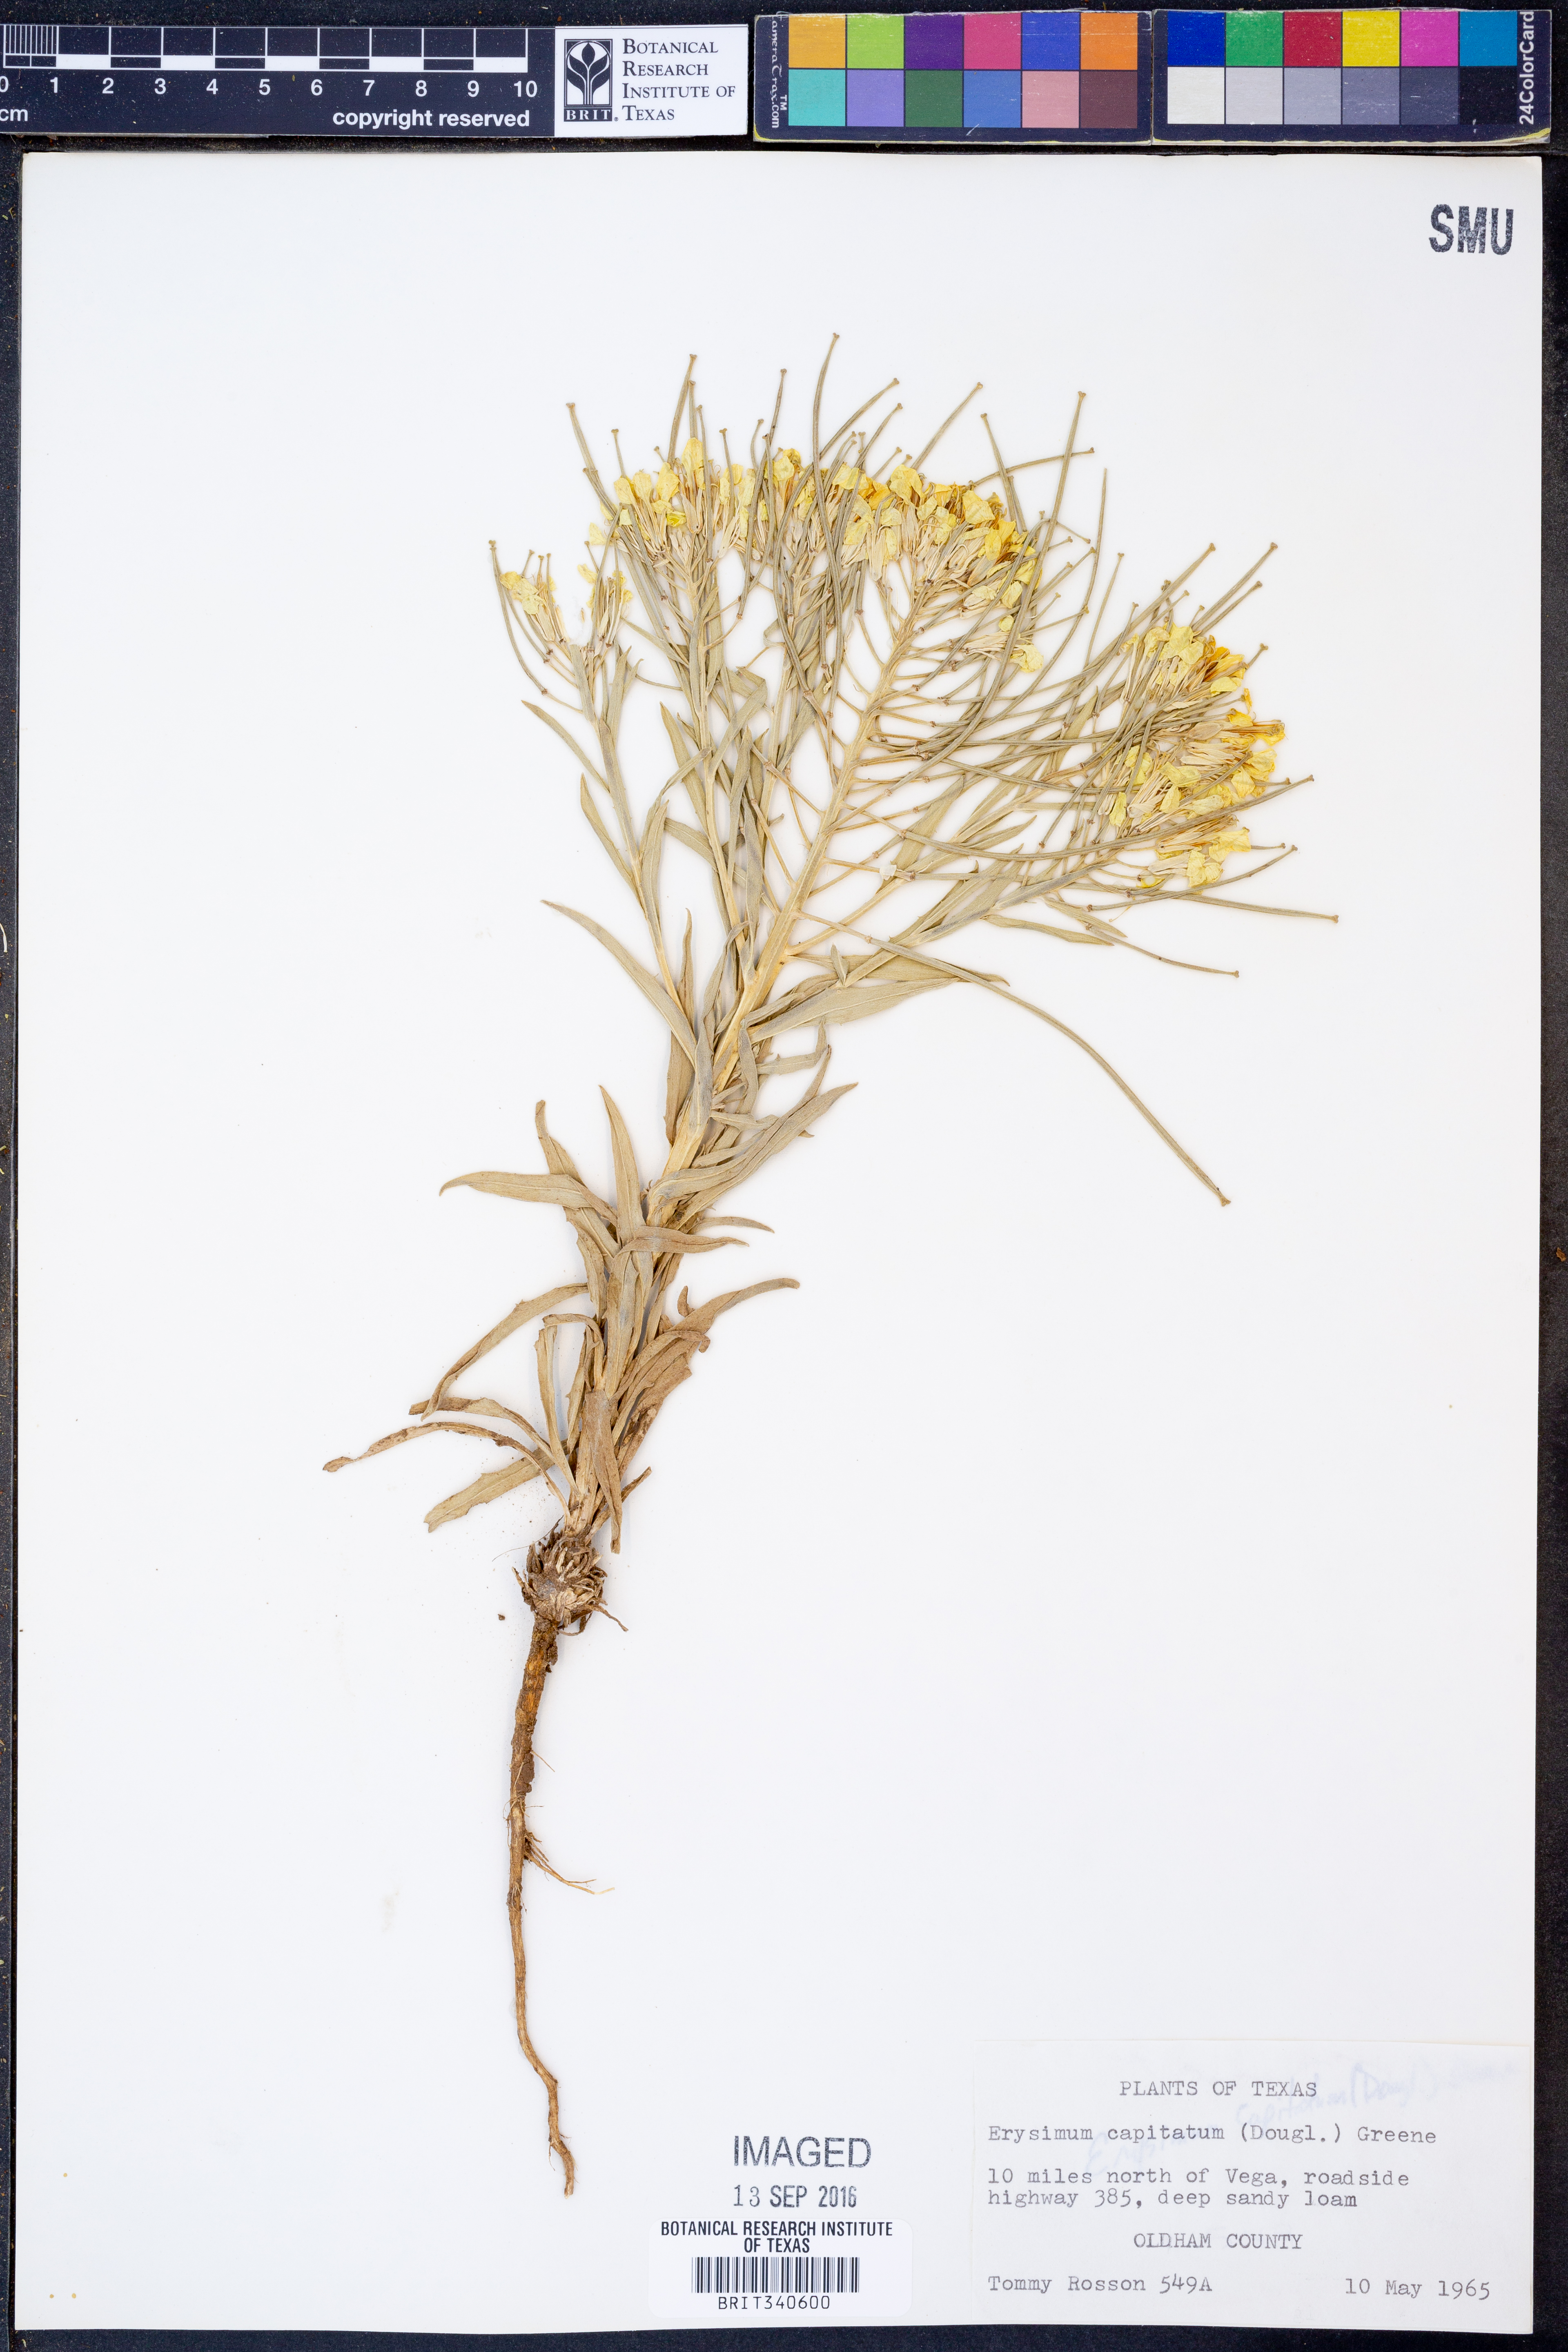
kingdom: Plantae
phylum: Tracheophyta
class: Magnoliopsida
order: Brassicales
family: Brassicaceae
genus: Erysimum
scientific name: Erysimum capitatum
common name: Western wallflower
